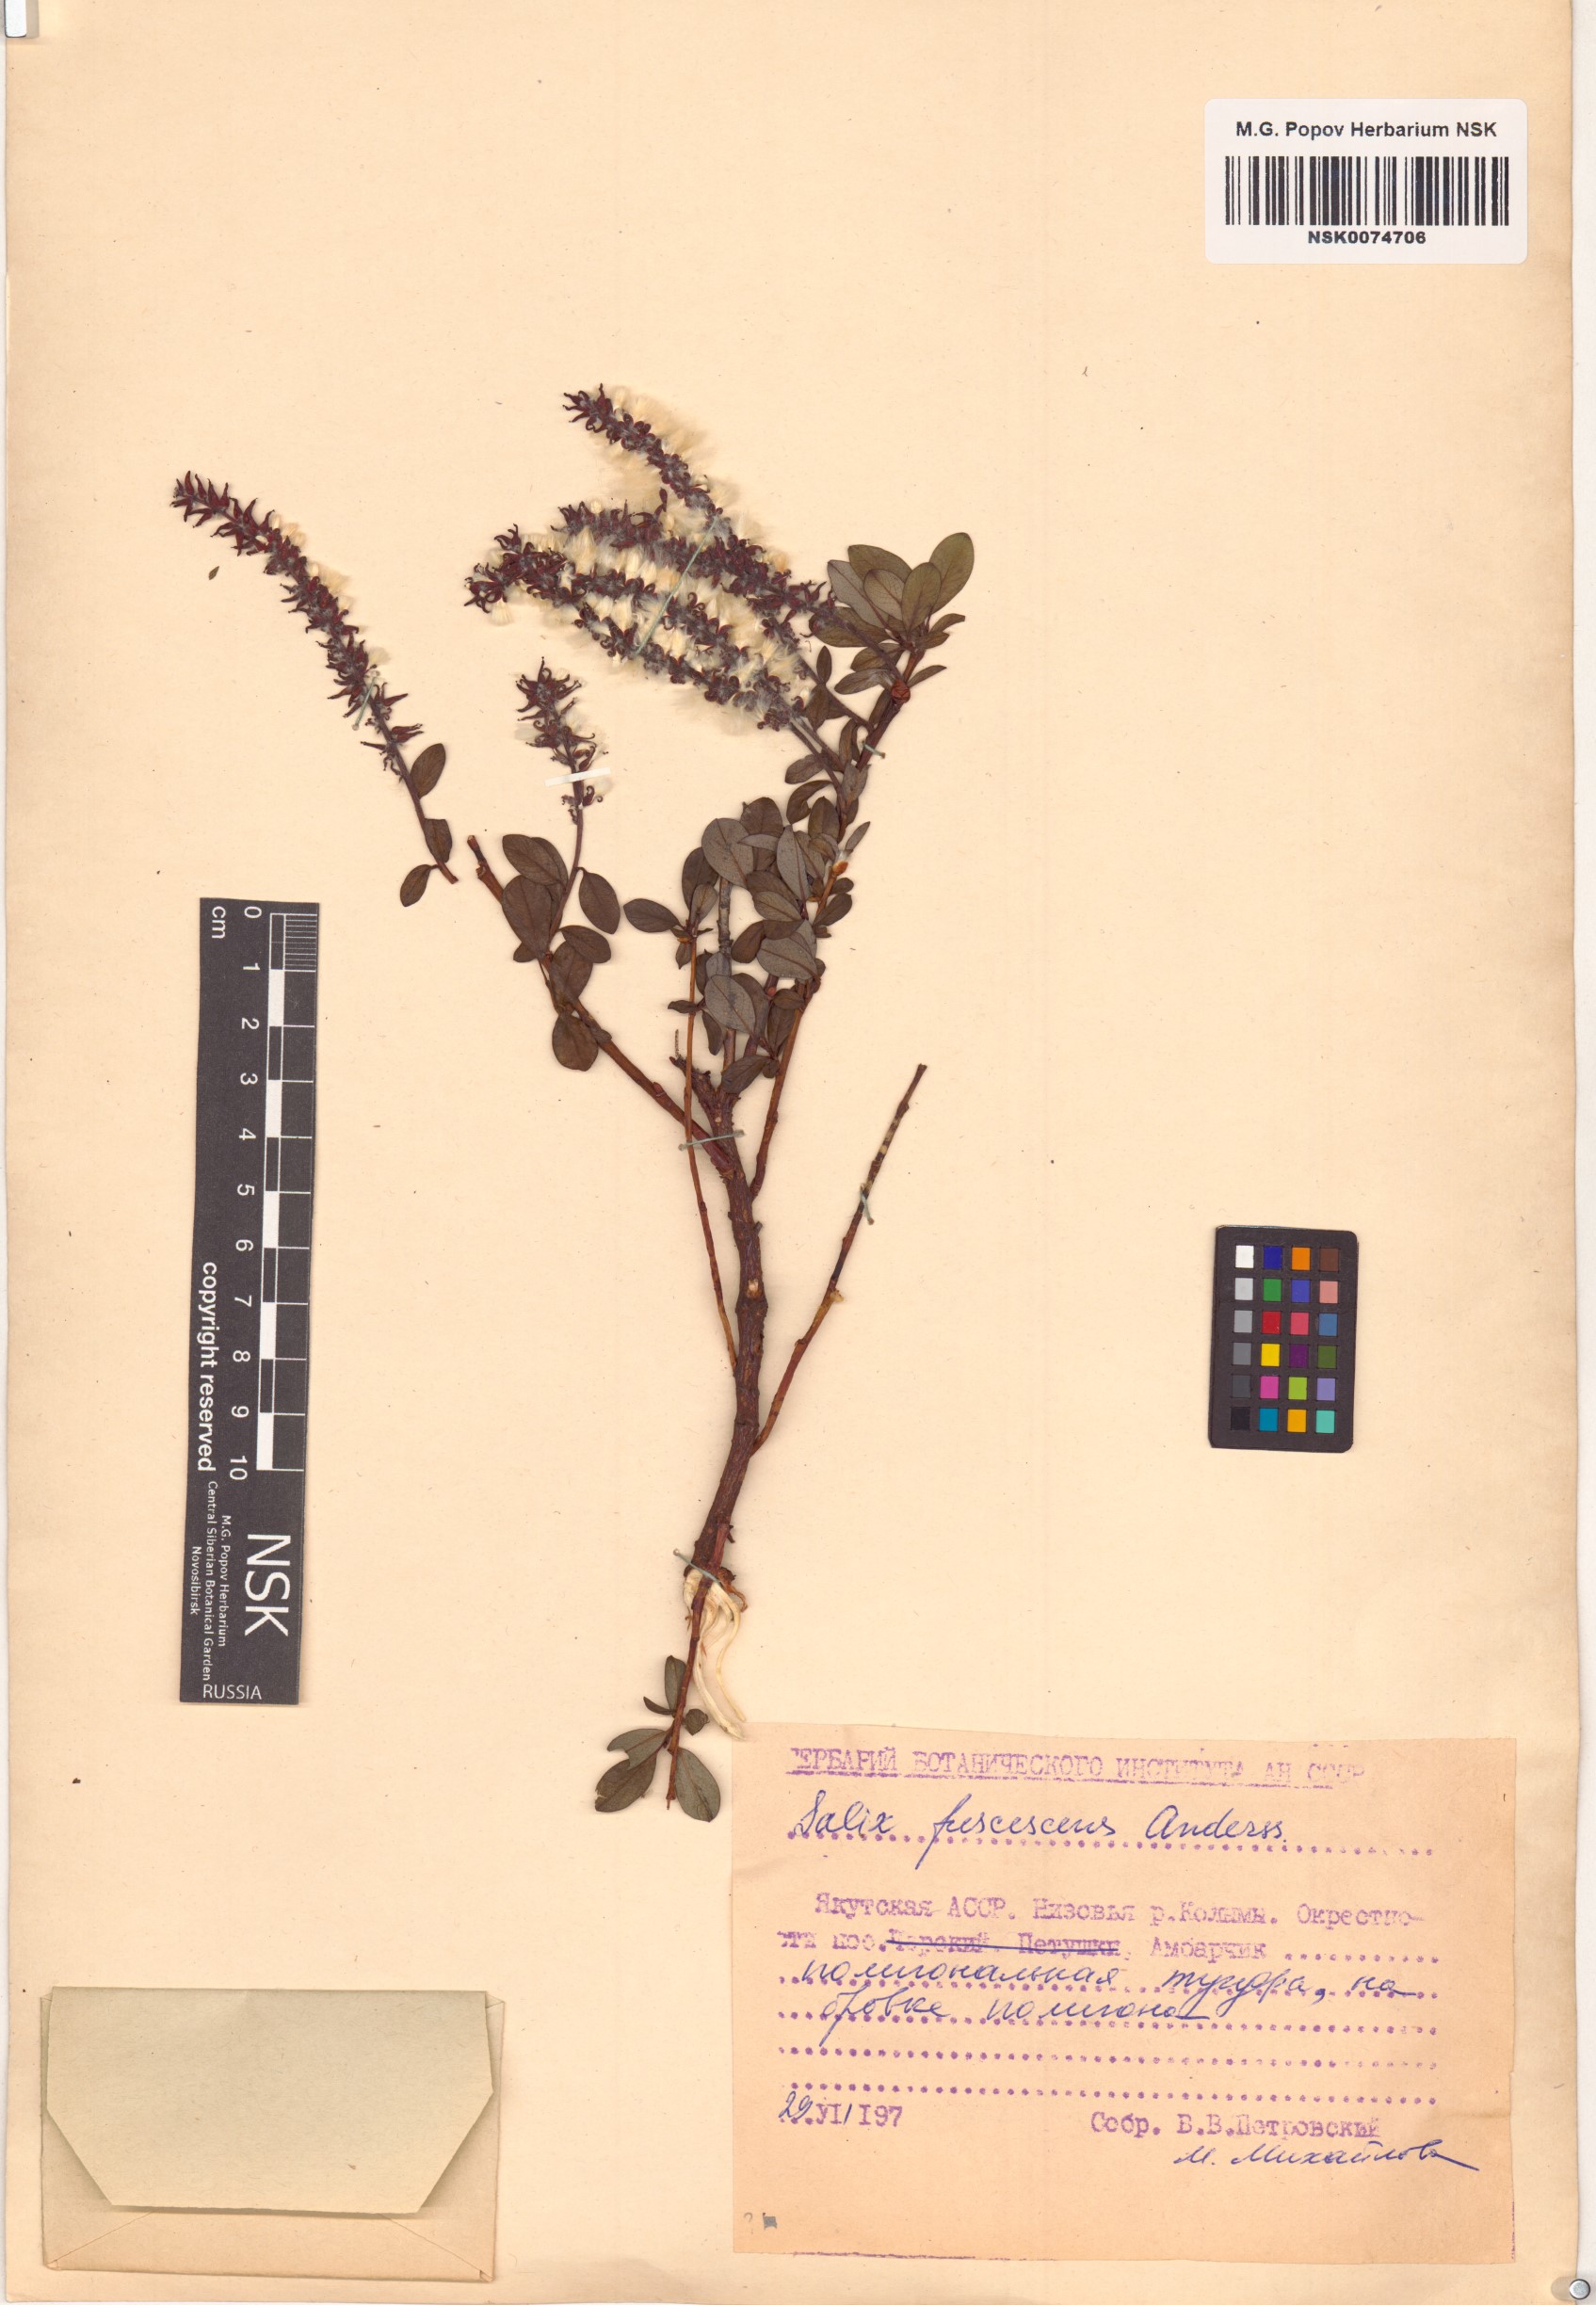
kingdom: Plantae
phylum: Tracheophyta
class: Magnoliopsida
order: Malpighiales
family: Salicaceae
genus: Salix
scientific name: Salix fuscescens
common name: Brownish willow
